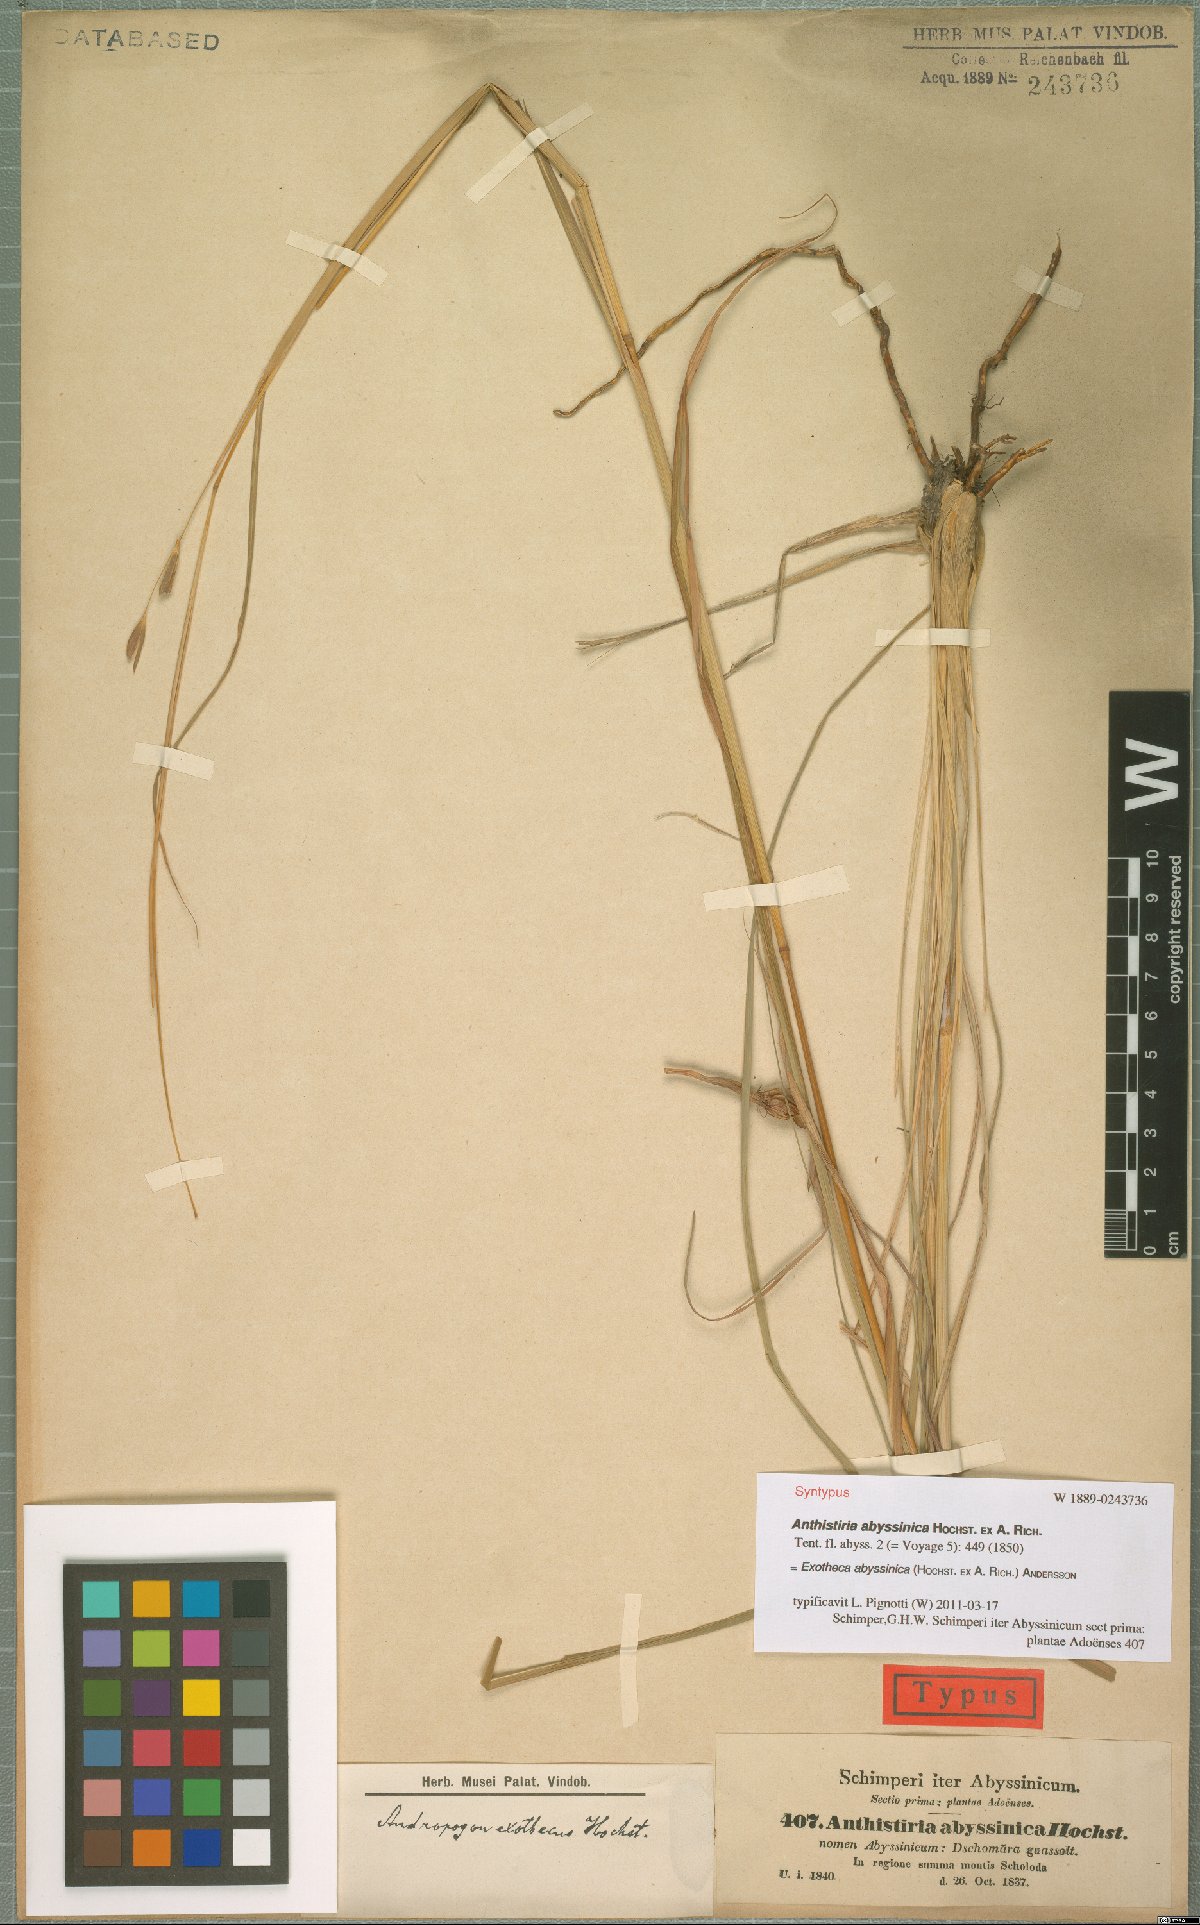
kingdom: Plantae
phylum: Tracheophyta
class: Liliopsida
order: Poales
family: Poaceae
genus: Exotheca
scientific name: Exotheca abyssinica
